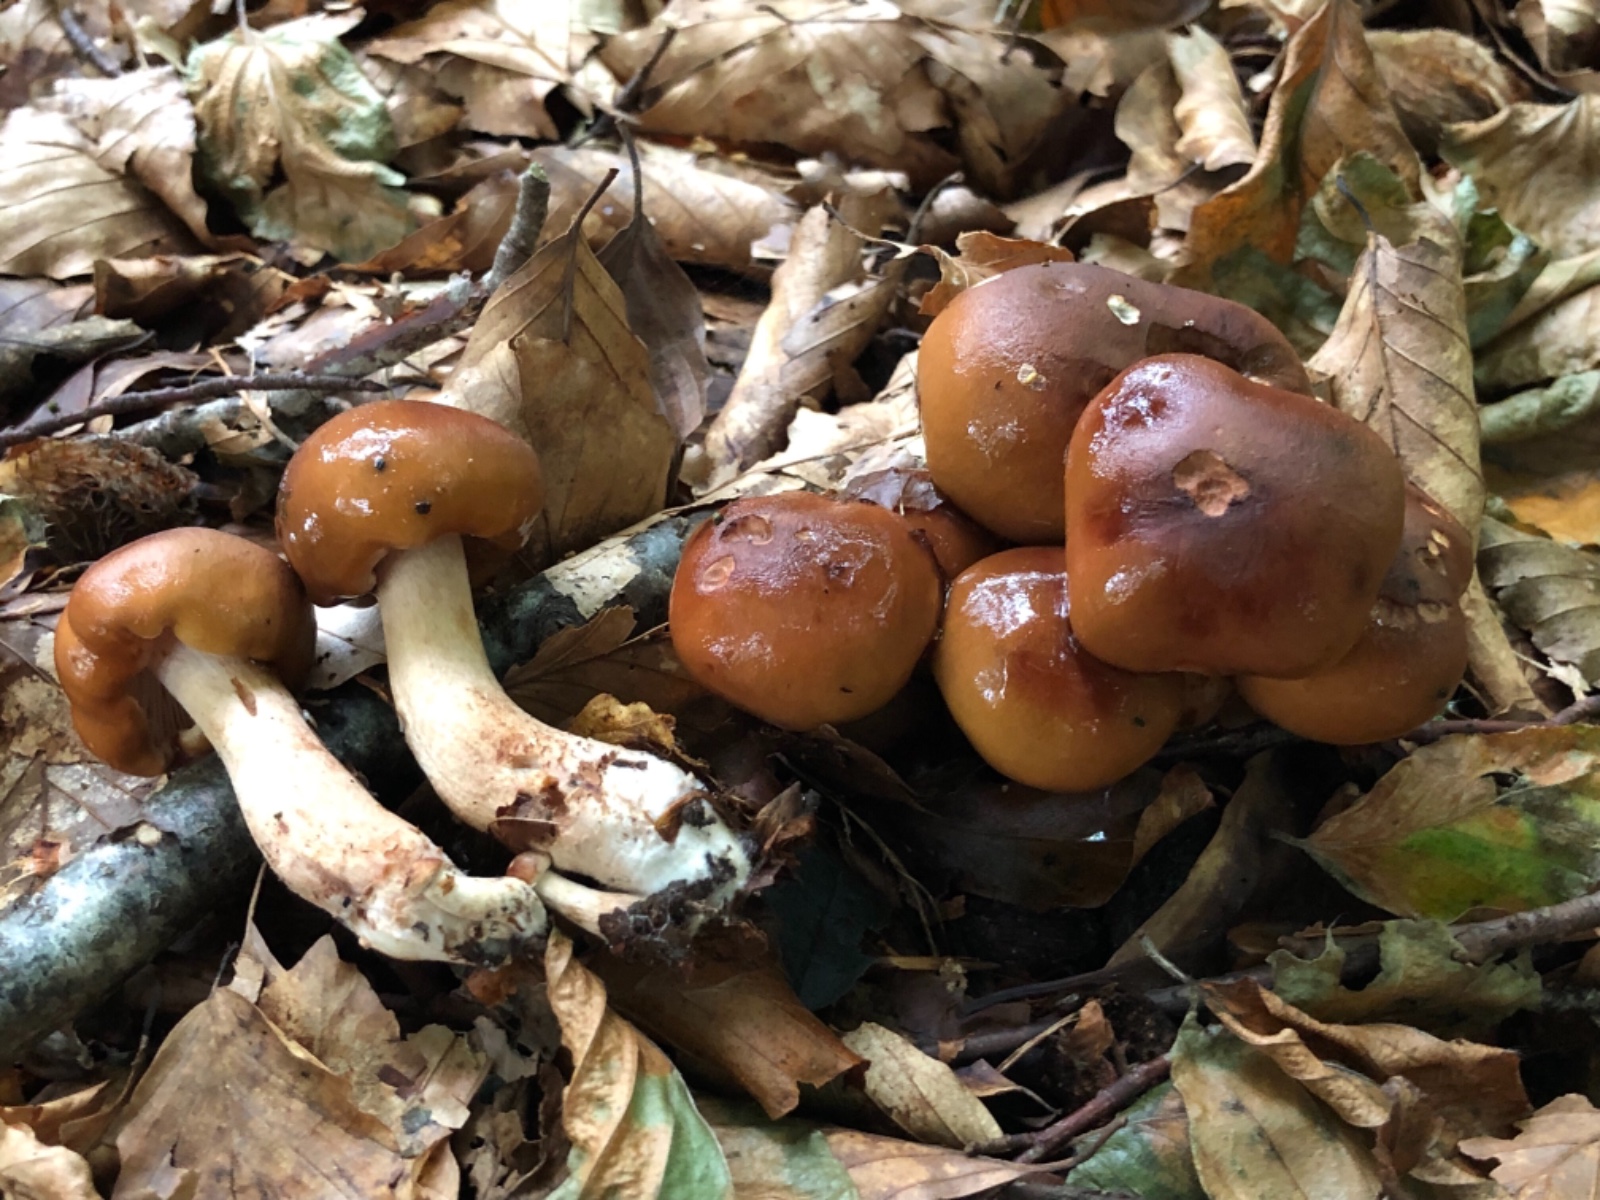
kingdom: Fungi
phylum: Basidiomycota
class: Agaricomycetes
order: Agaricales
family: Tricholomataceae
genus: Tricholoma
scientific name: Tricholoma ustale
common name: sveden ridderhat
